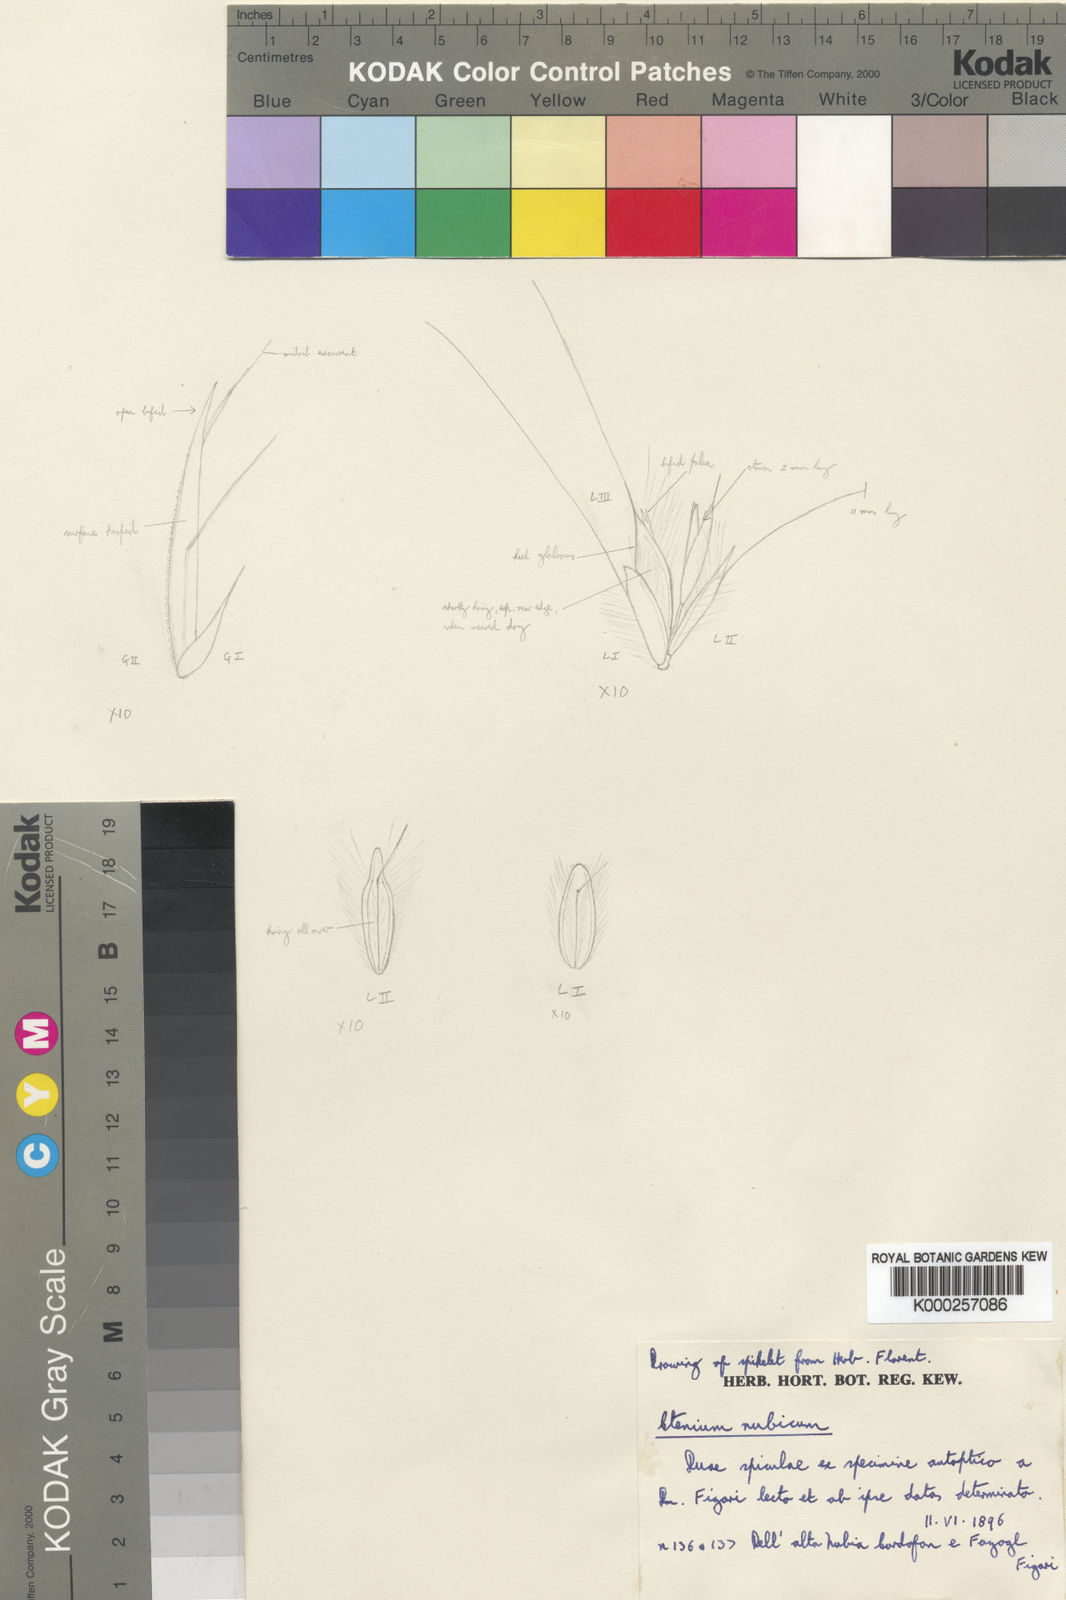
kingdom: Plantae
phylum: Tracheophyta
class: Liliopsida
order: Poales
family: Poaceae
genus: Ctenium
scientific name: Ctenium newtonii
